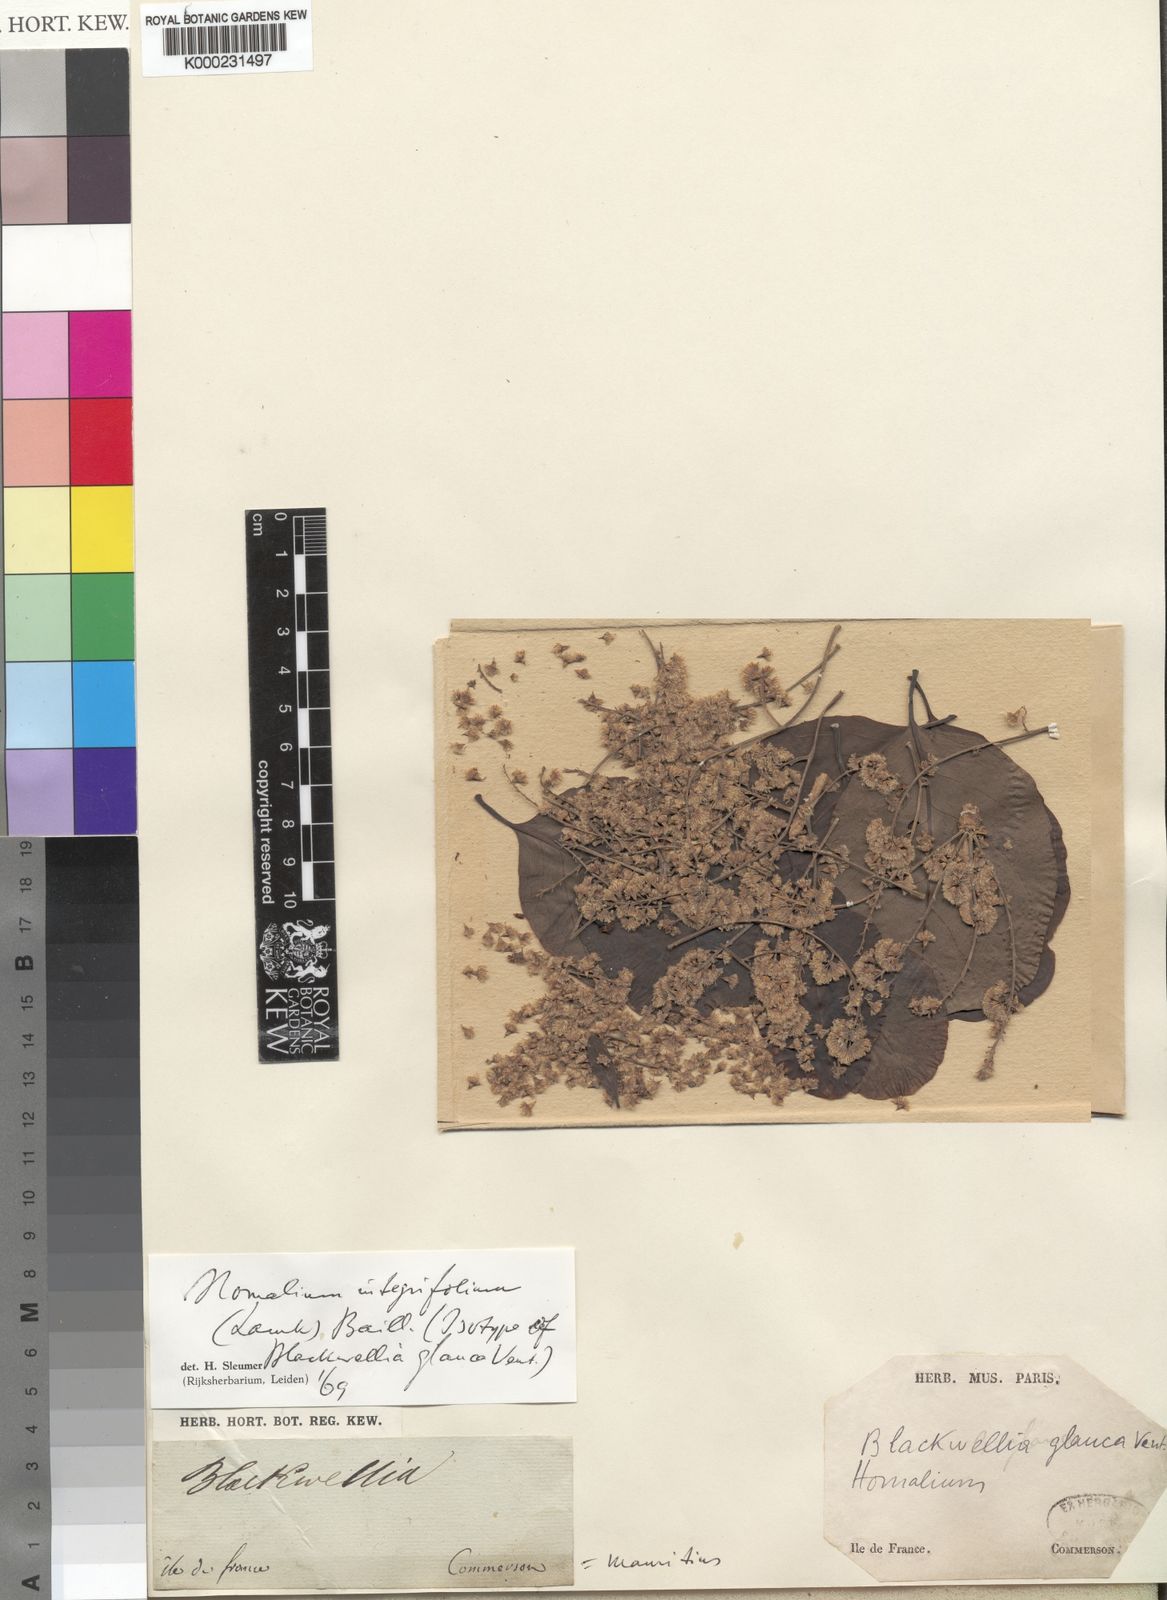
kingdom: Plantae
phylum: Tracheophyta
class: Magnoliopsida
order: Malpighiales
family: Salicaceae
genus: Homalium
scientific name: Homalium integrifolium
